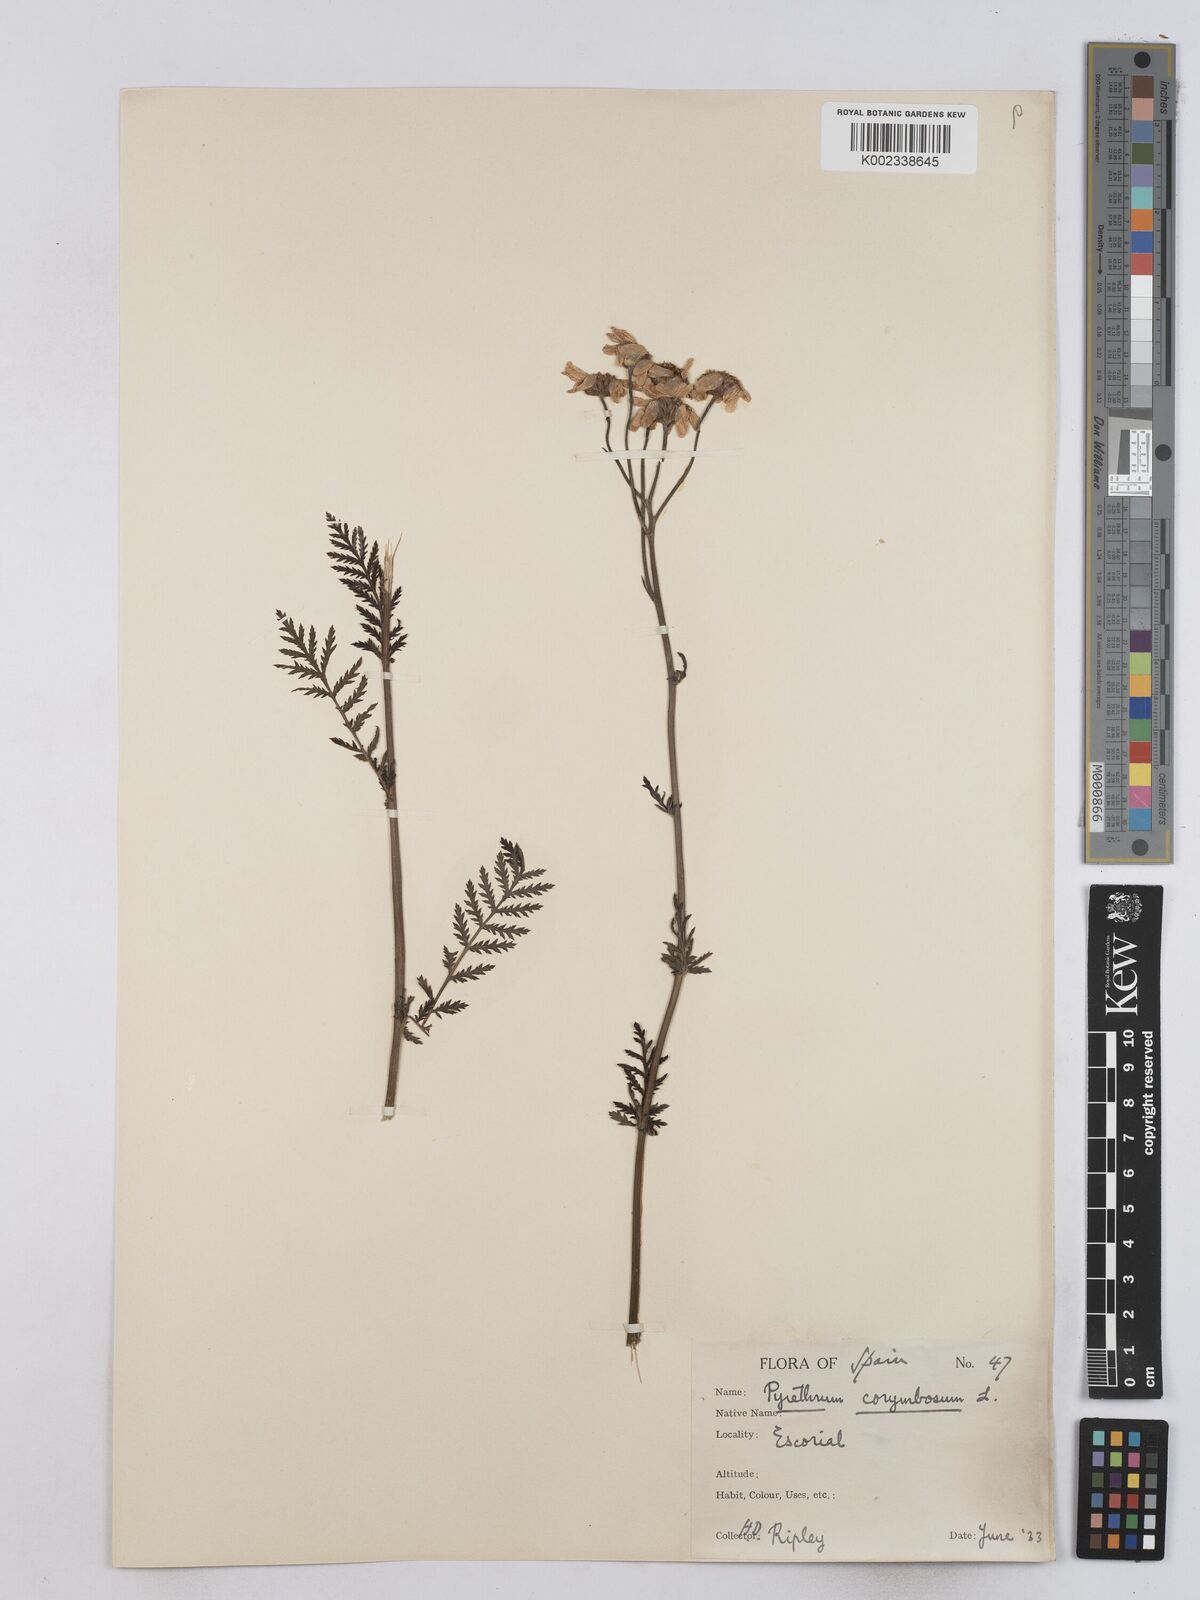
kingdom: Plantae
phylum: Tracheophyta
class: Magnoliopsida
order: Asterales
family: Asteraceae
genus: Tanacetum
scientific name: Tanacetum corymbosum
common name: Scentless feverfew
